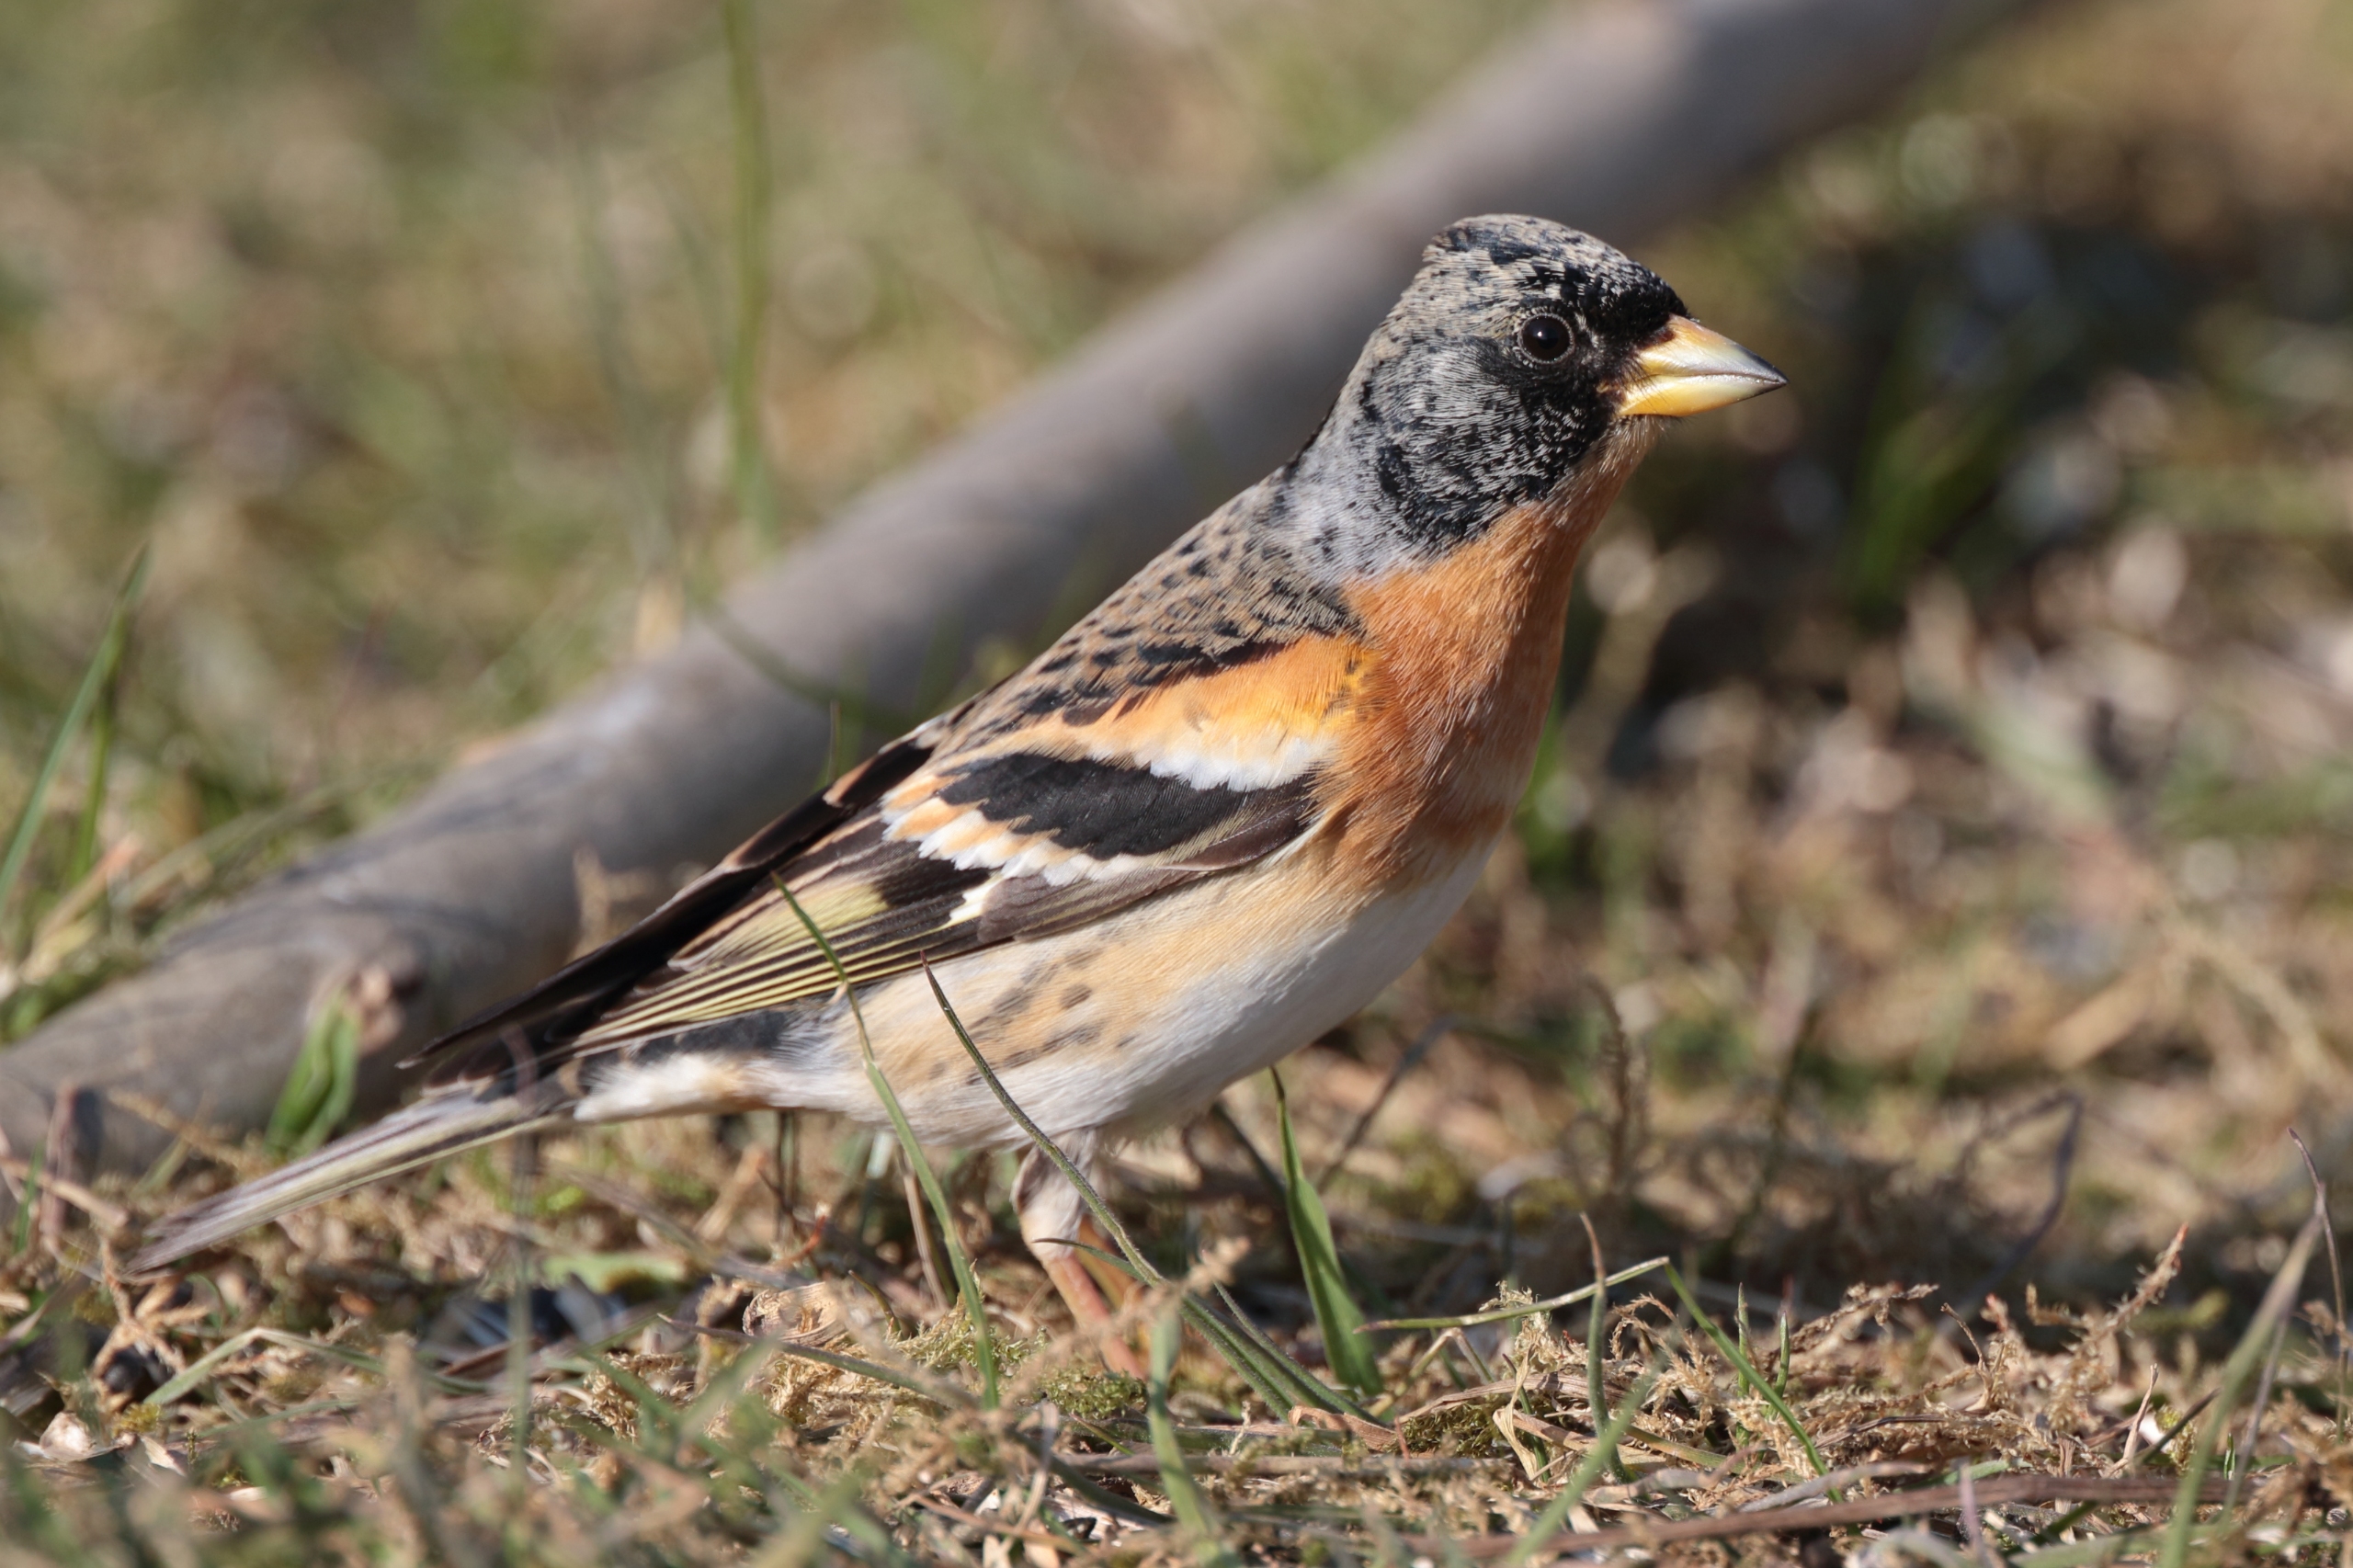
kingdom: Animalia
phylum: Chordata
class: Aves
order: Passeriformes
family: Fringillidae
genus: Fringilla
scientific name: Fringilla montifringilla
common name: Kvækerfinke
